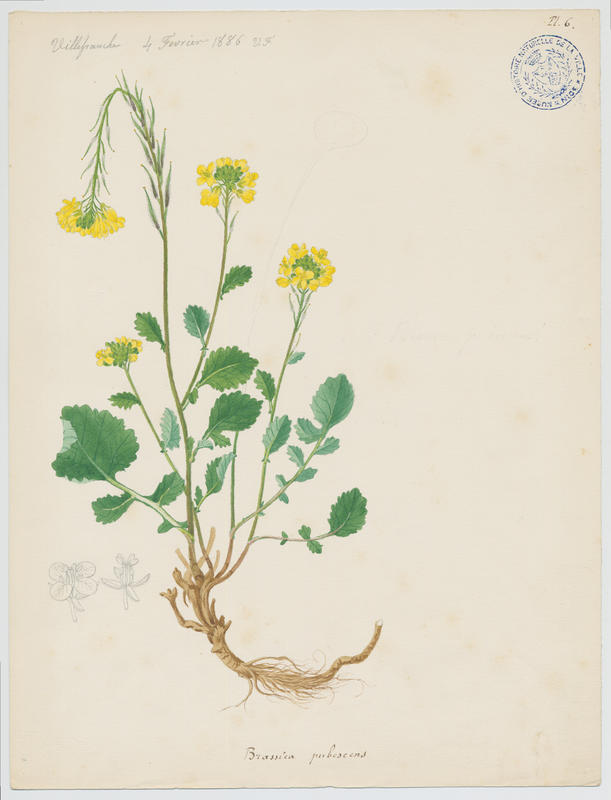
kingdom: Plantae
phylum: Tracheophyta
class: Magnoliopsida
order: Brassicales
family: Brassicaceae
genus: Sinapis
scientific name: Sinapis pubescens
